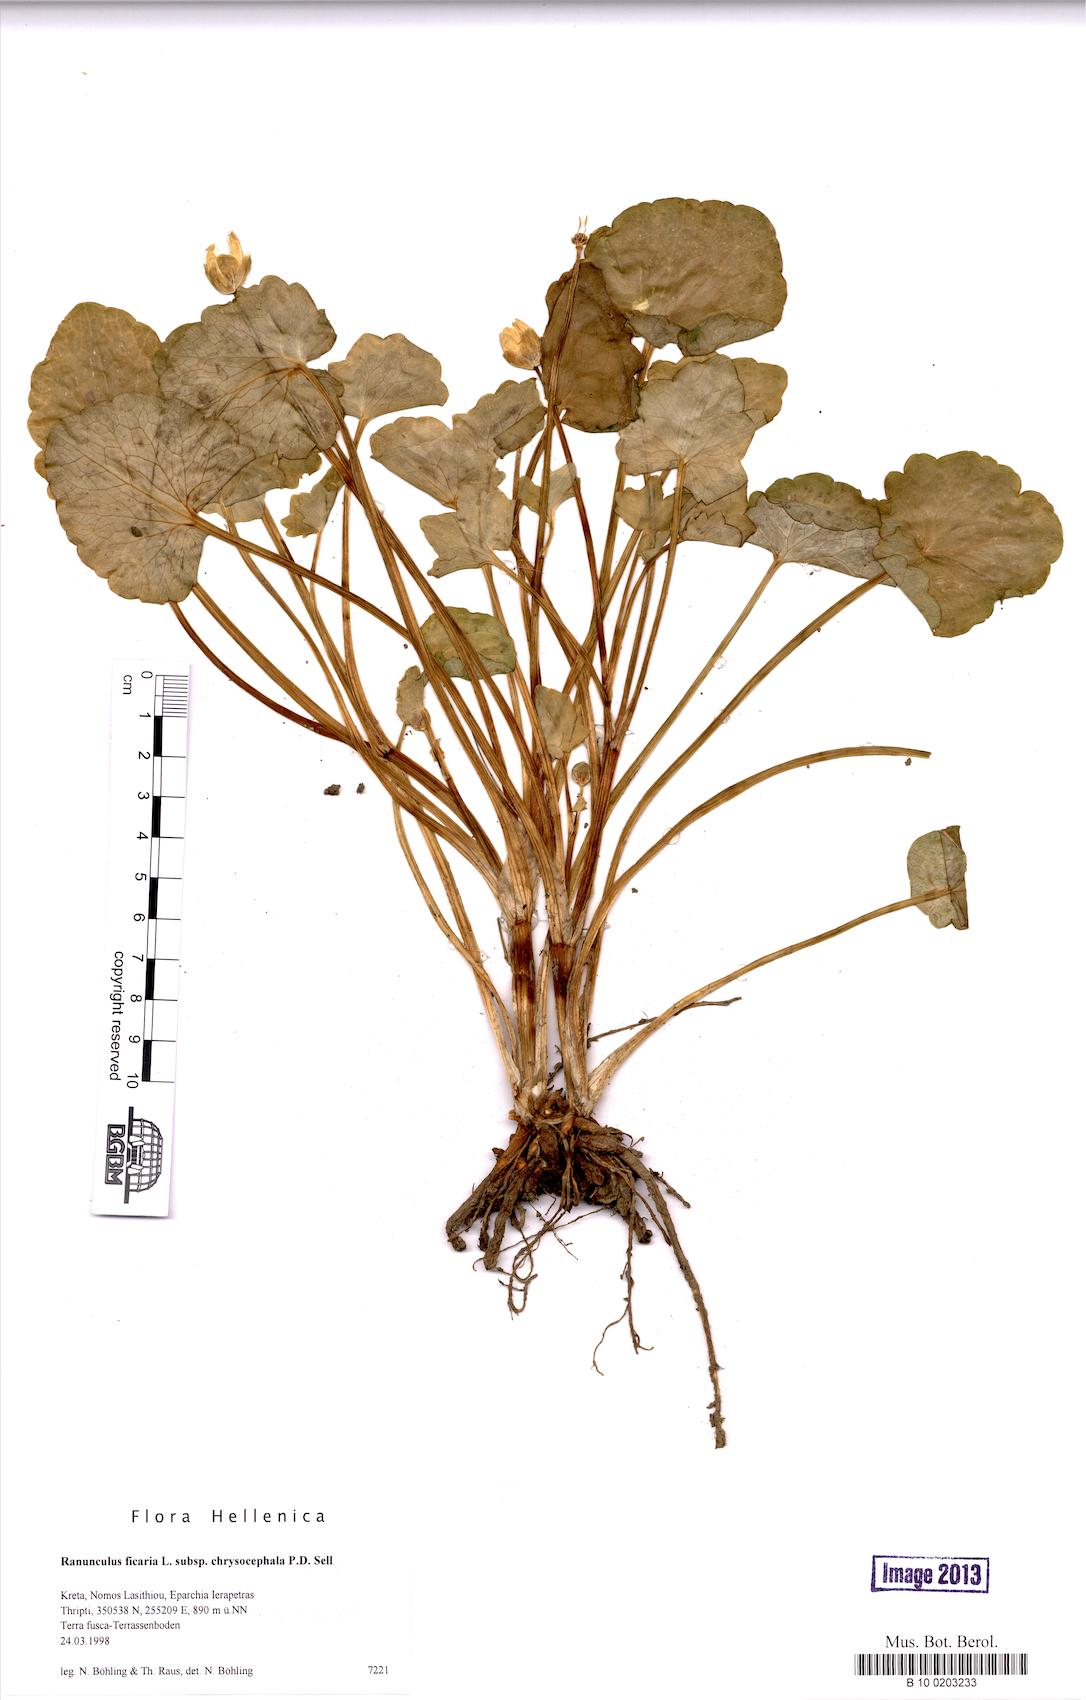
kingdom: Plantae
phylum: Tracheophyta
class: Magnoliopsida
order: Ranunculales
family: Ranunculaceae
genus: Ficaria
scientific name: Ficaria chrysocephala
